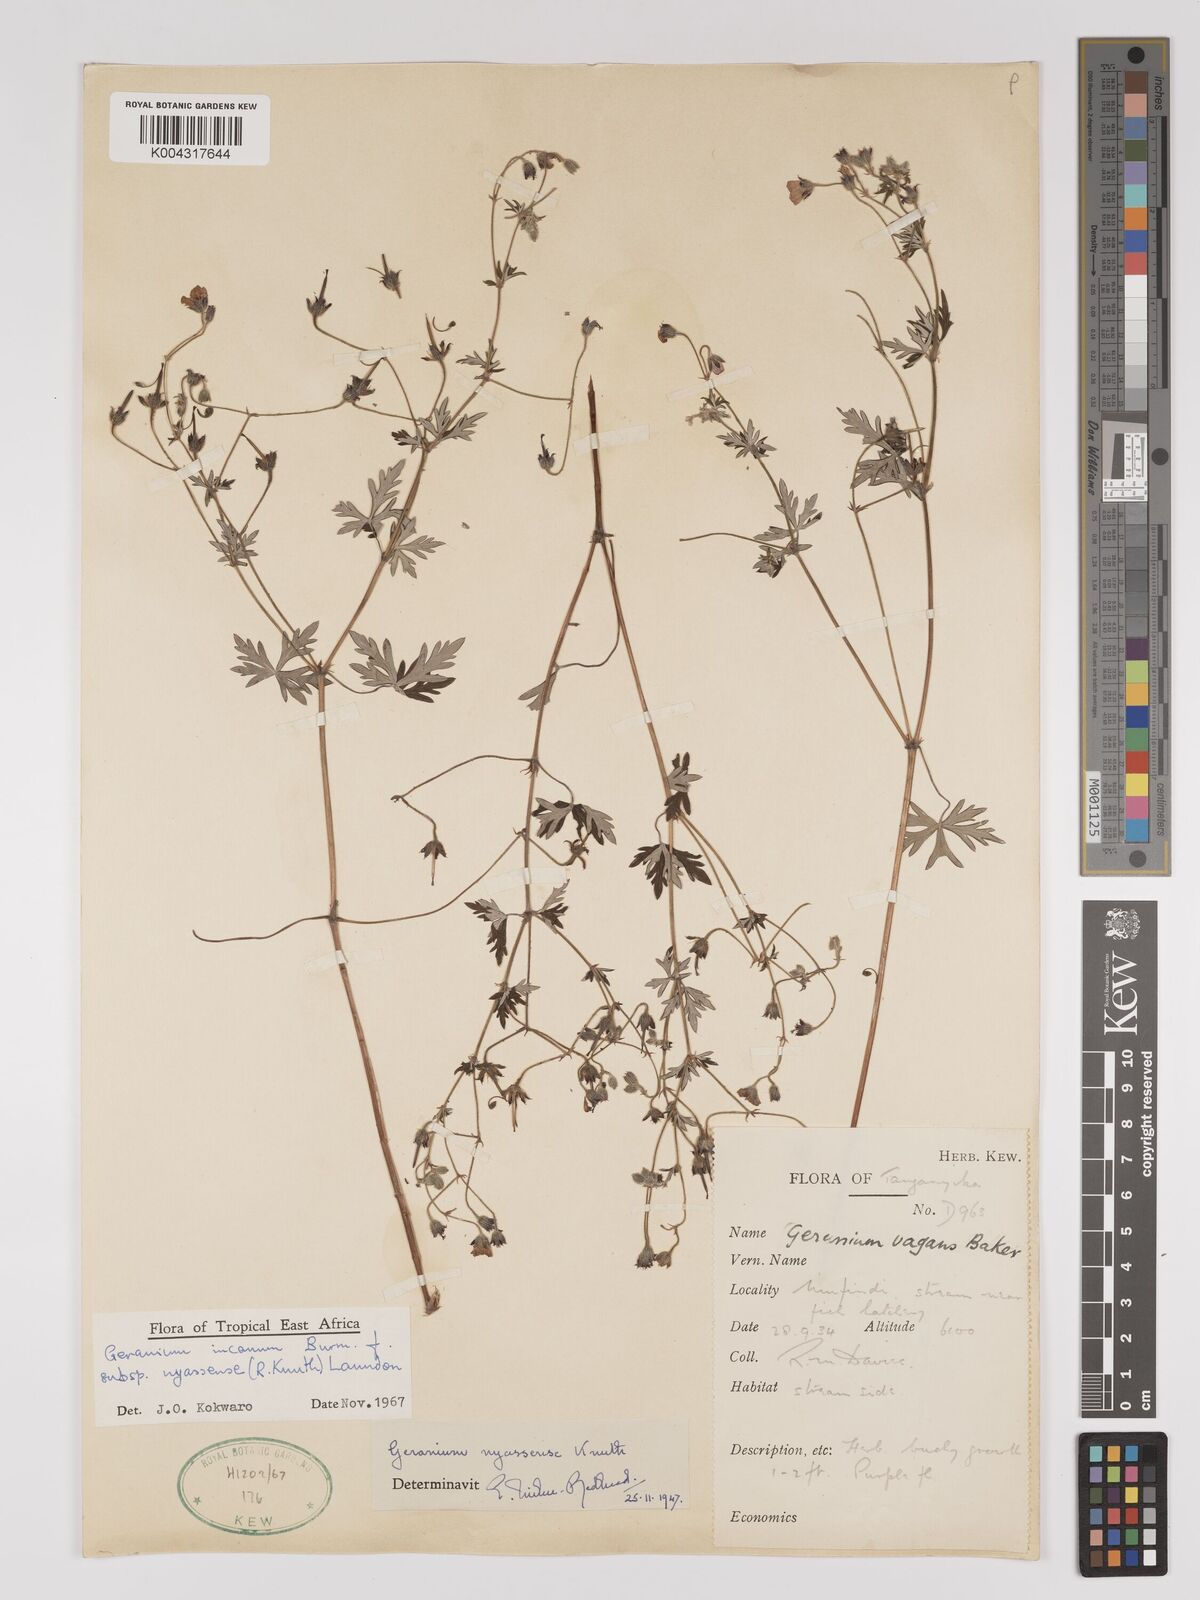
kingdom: Plantae
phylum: Tracheophyta
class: Magnoliopsida
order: Geraniales
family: Geraniaceae
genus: Geranium
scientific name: Geranium incanum
